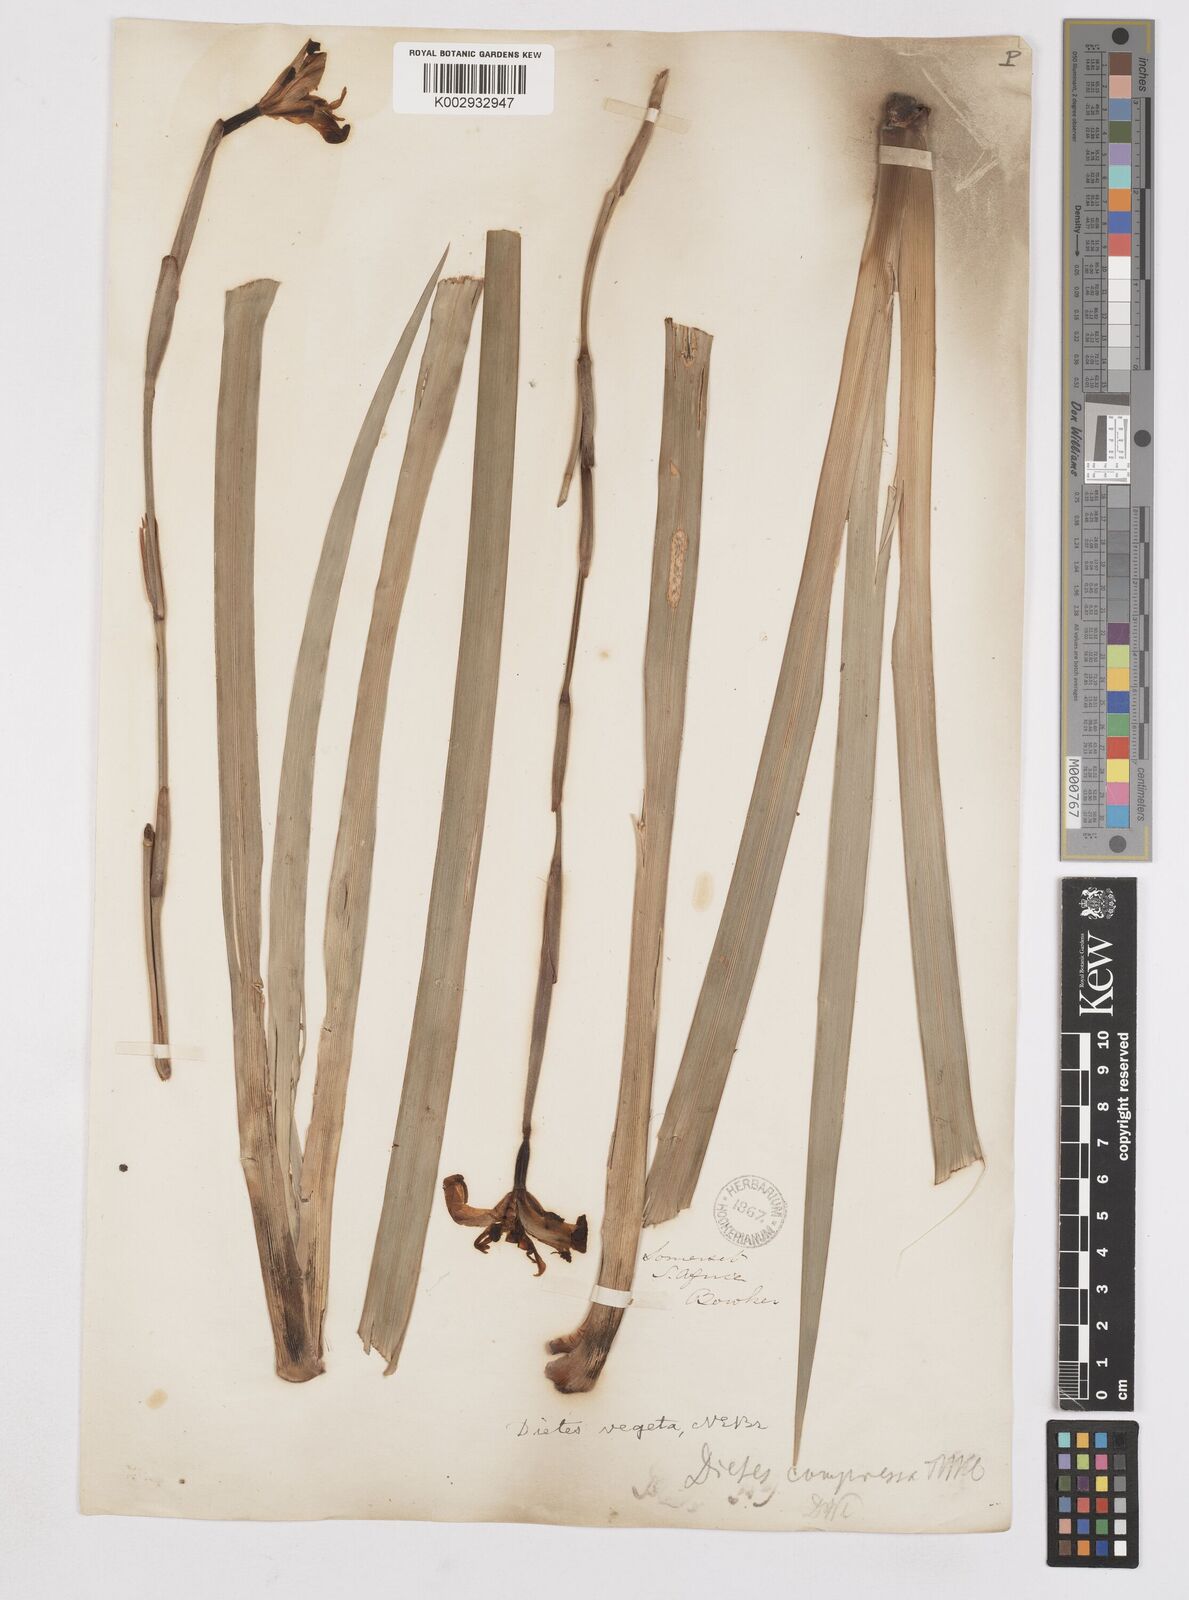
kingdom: Plantae
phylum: Tracheophyta
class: Liliopsida
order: Asparagales
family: Iridaceae
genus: Dietes
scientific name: Dietes iridioides
